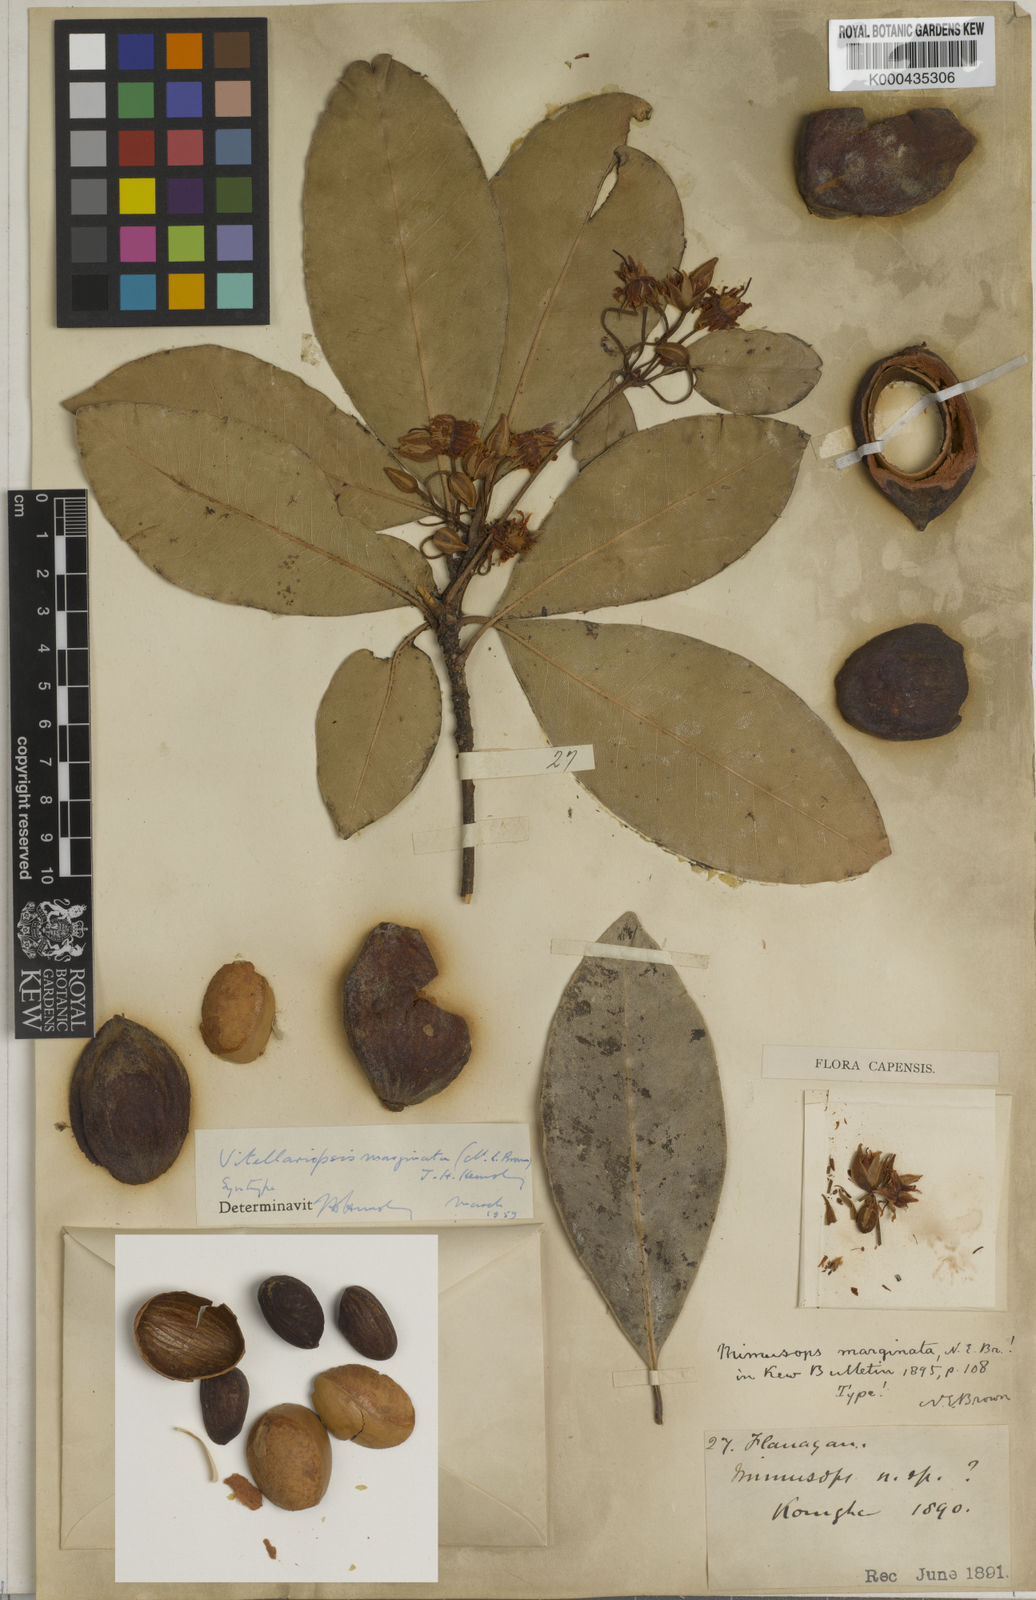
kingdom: Plantae
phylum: Tracheophyta
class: Magnoliopsida
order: Ericales
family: Sapotaceae
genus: Vitellariopsis
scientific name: Vitellariopsis marginata
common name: Flatcap milkwood
